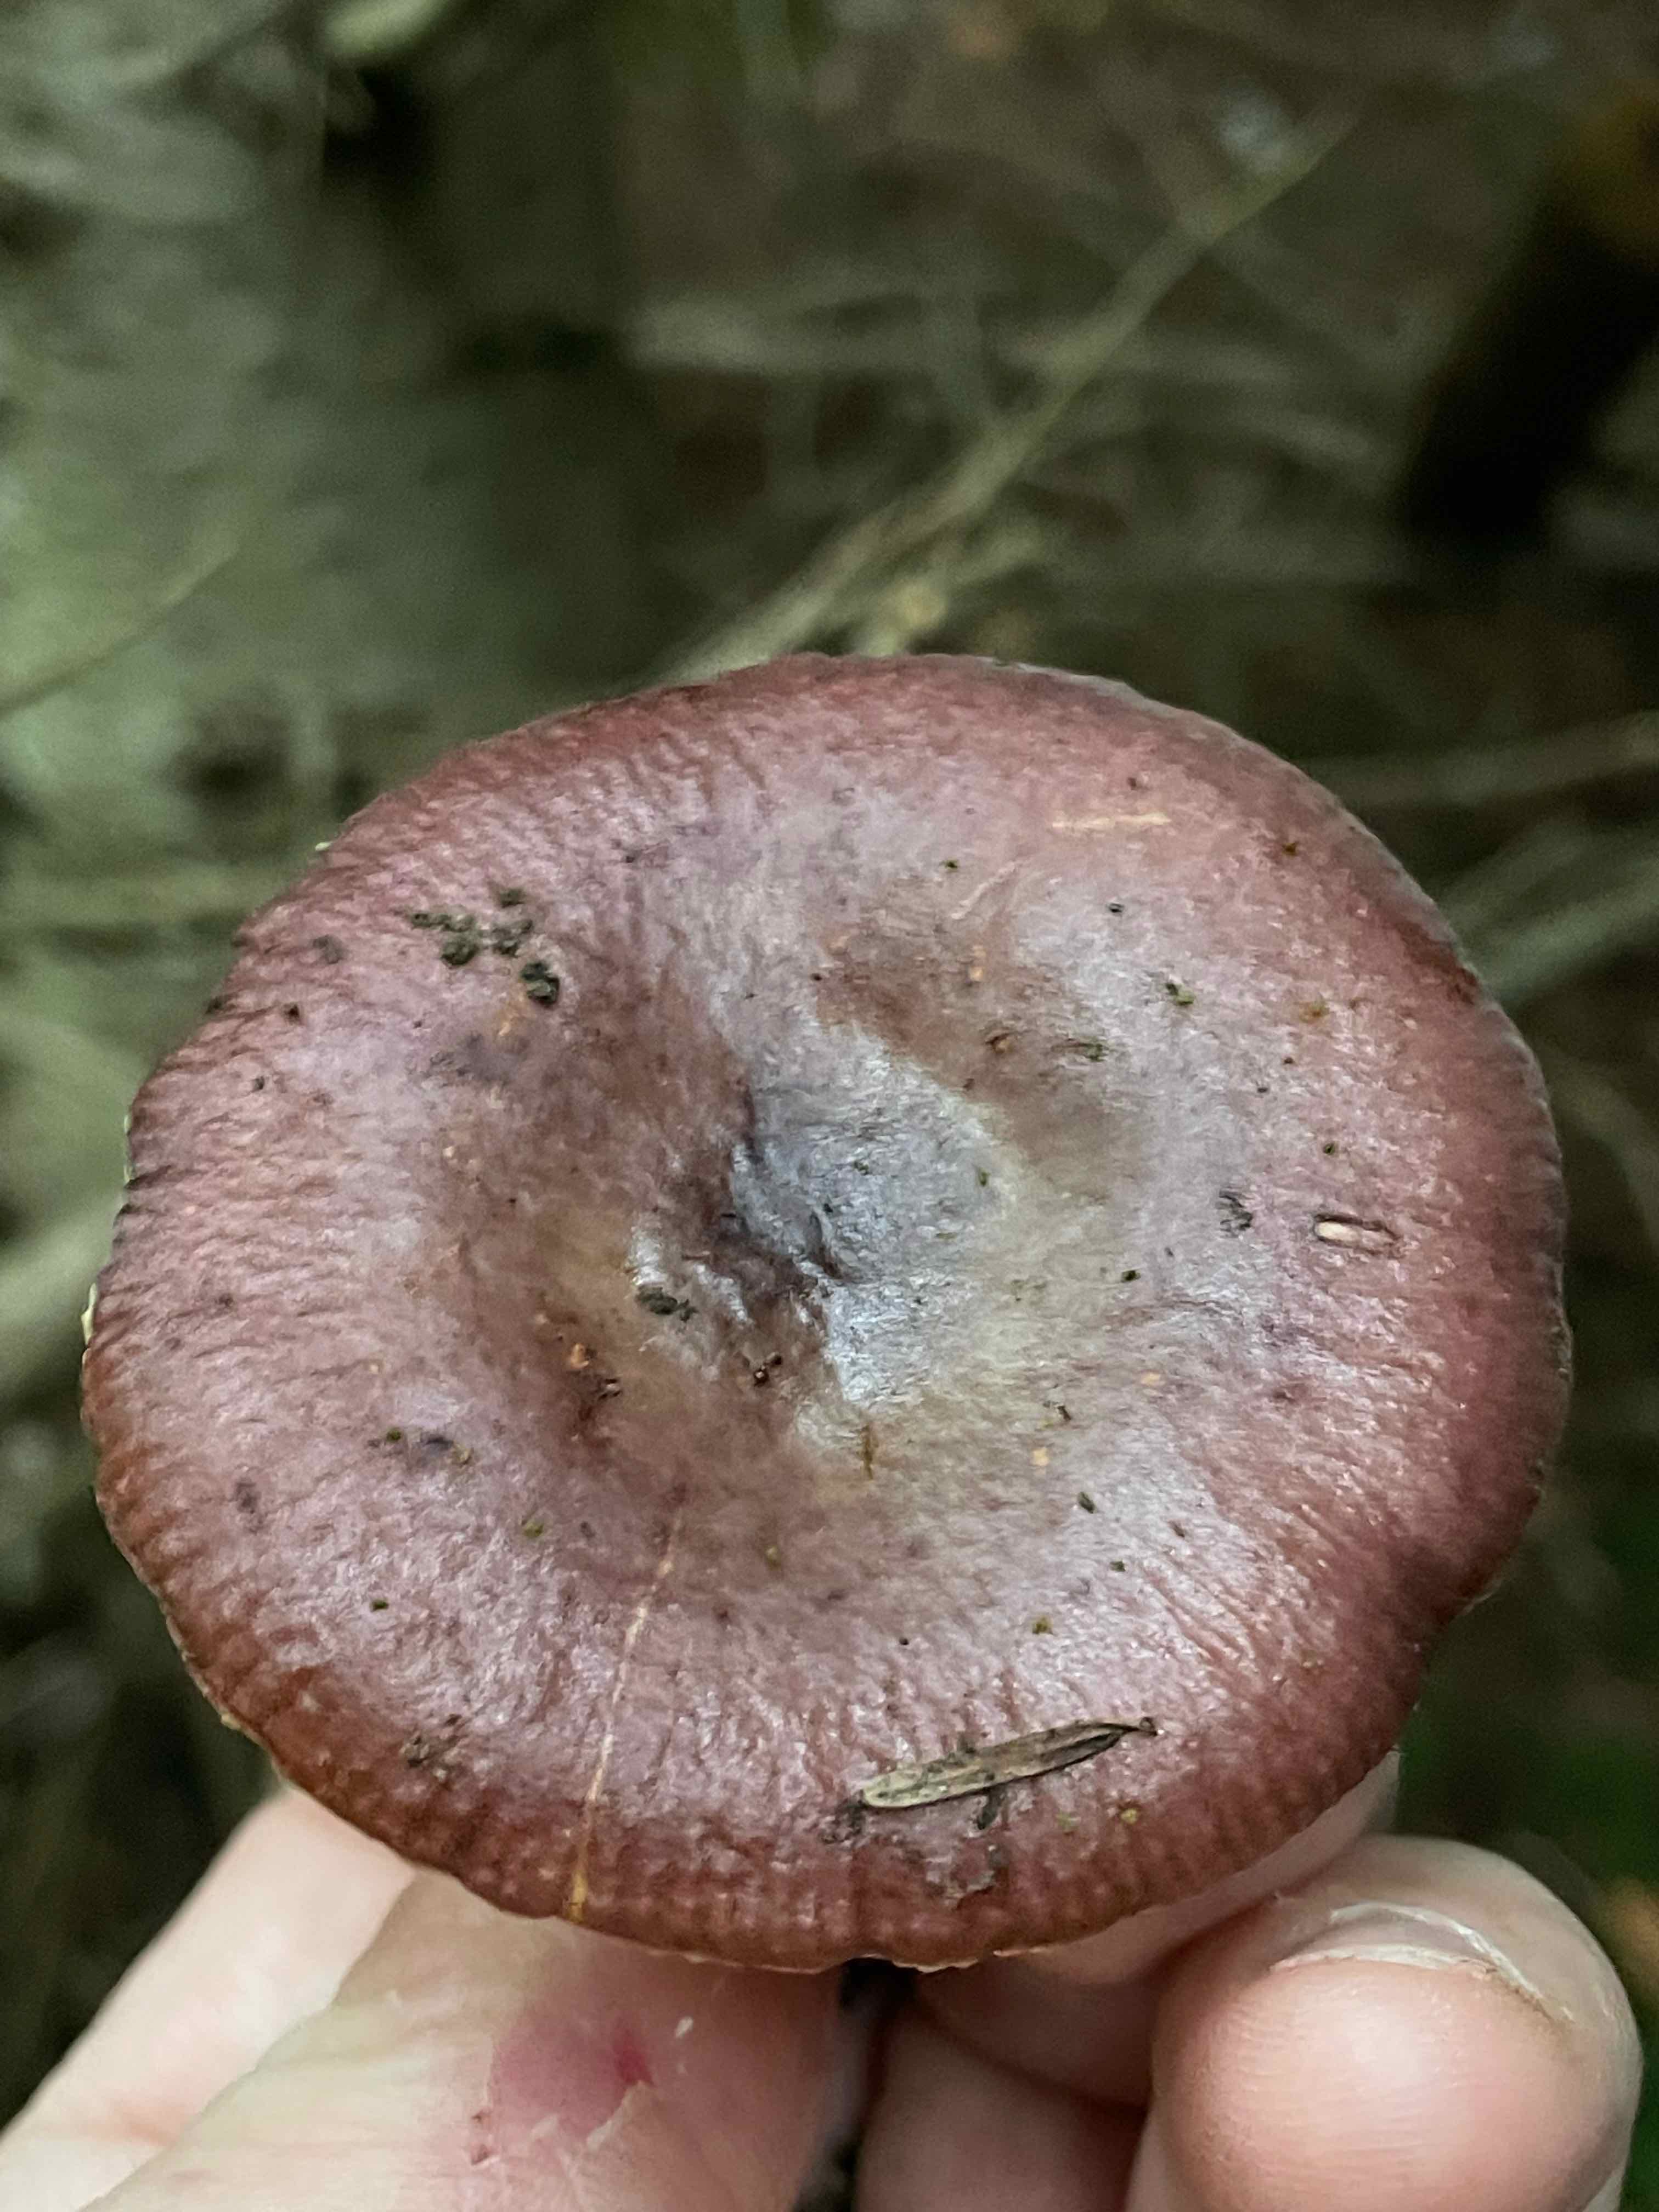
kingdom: Fungi
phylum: Basidiomycota
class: Agaricomycetes
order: Russulales
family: Russulaceae
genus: Russula
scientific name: Russula puellaris
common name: gulstokket skørhat
